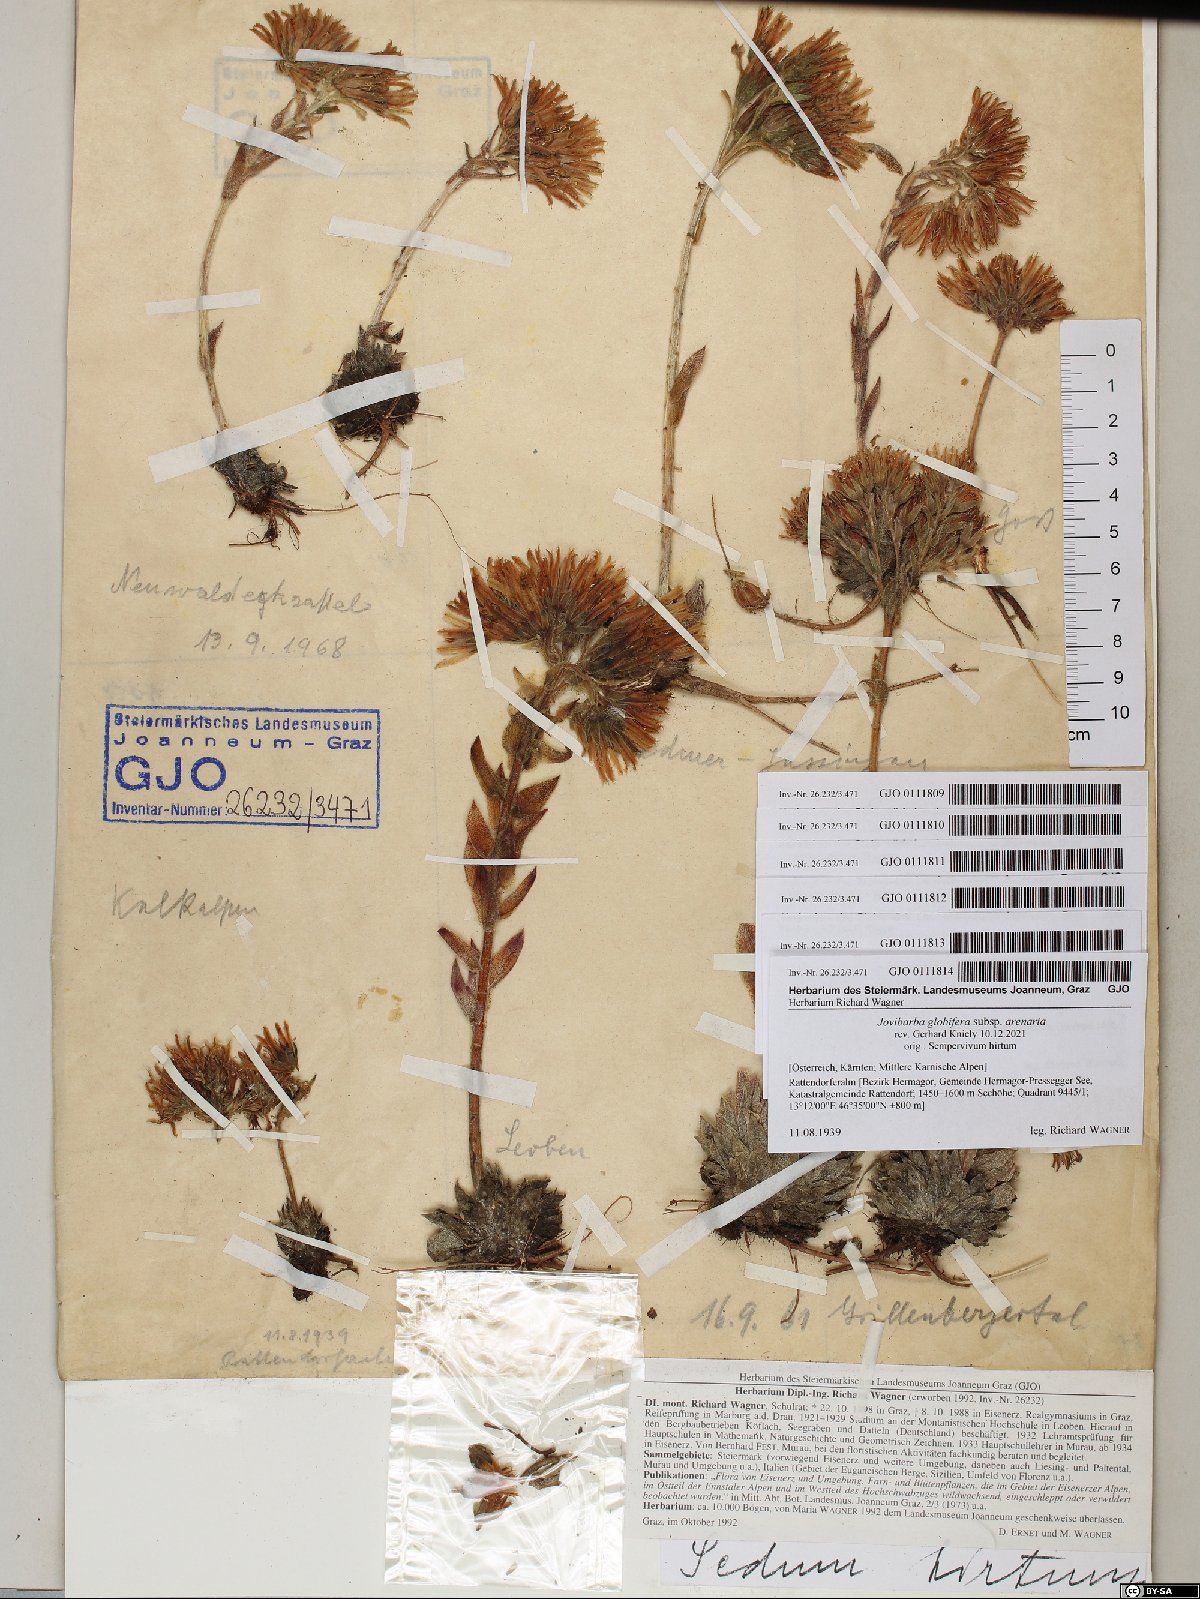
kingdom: Plantae
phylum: Tracheophyta
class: Magnoliopsida
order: Saxifragales
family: Crassulaceae
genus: Sempervivum
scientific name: Sempervivum globiferum
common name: Rolling hen-and-chicks
